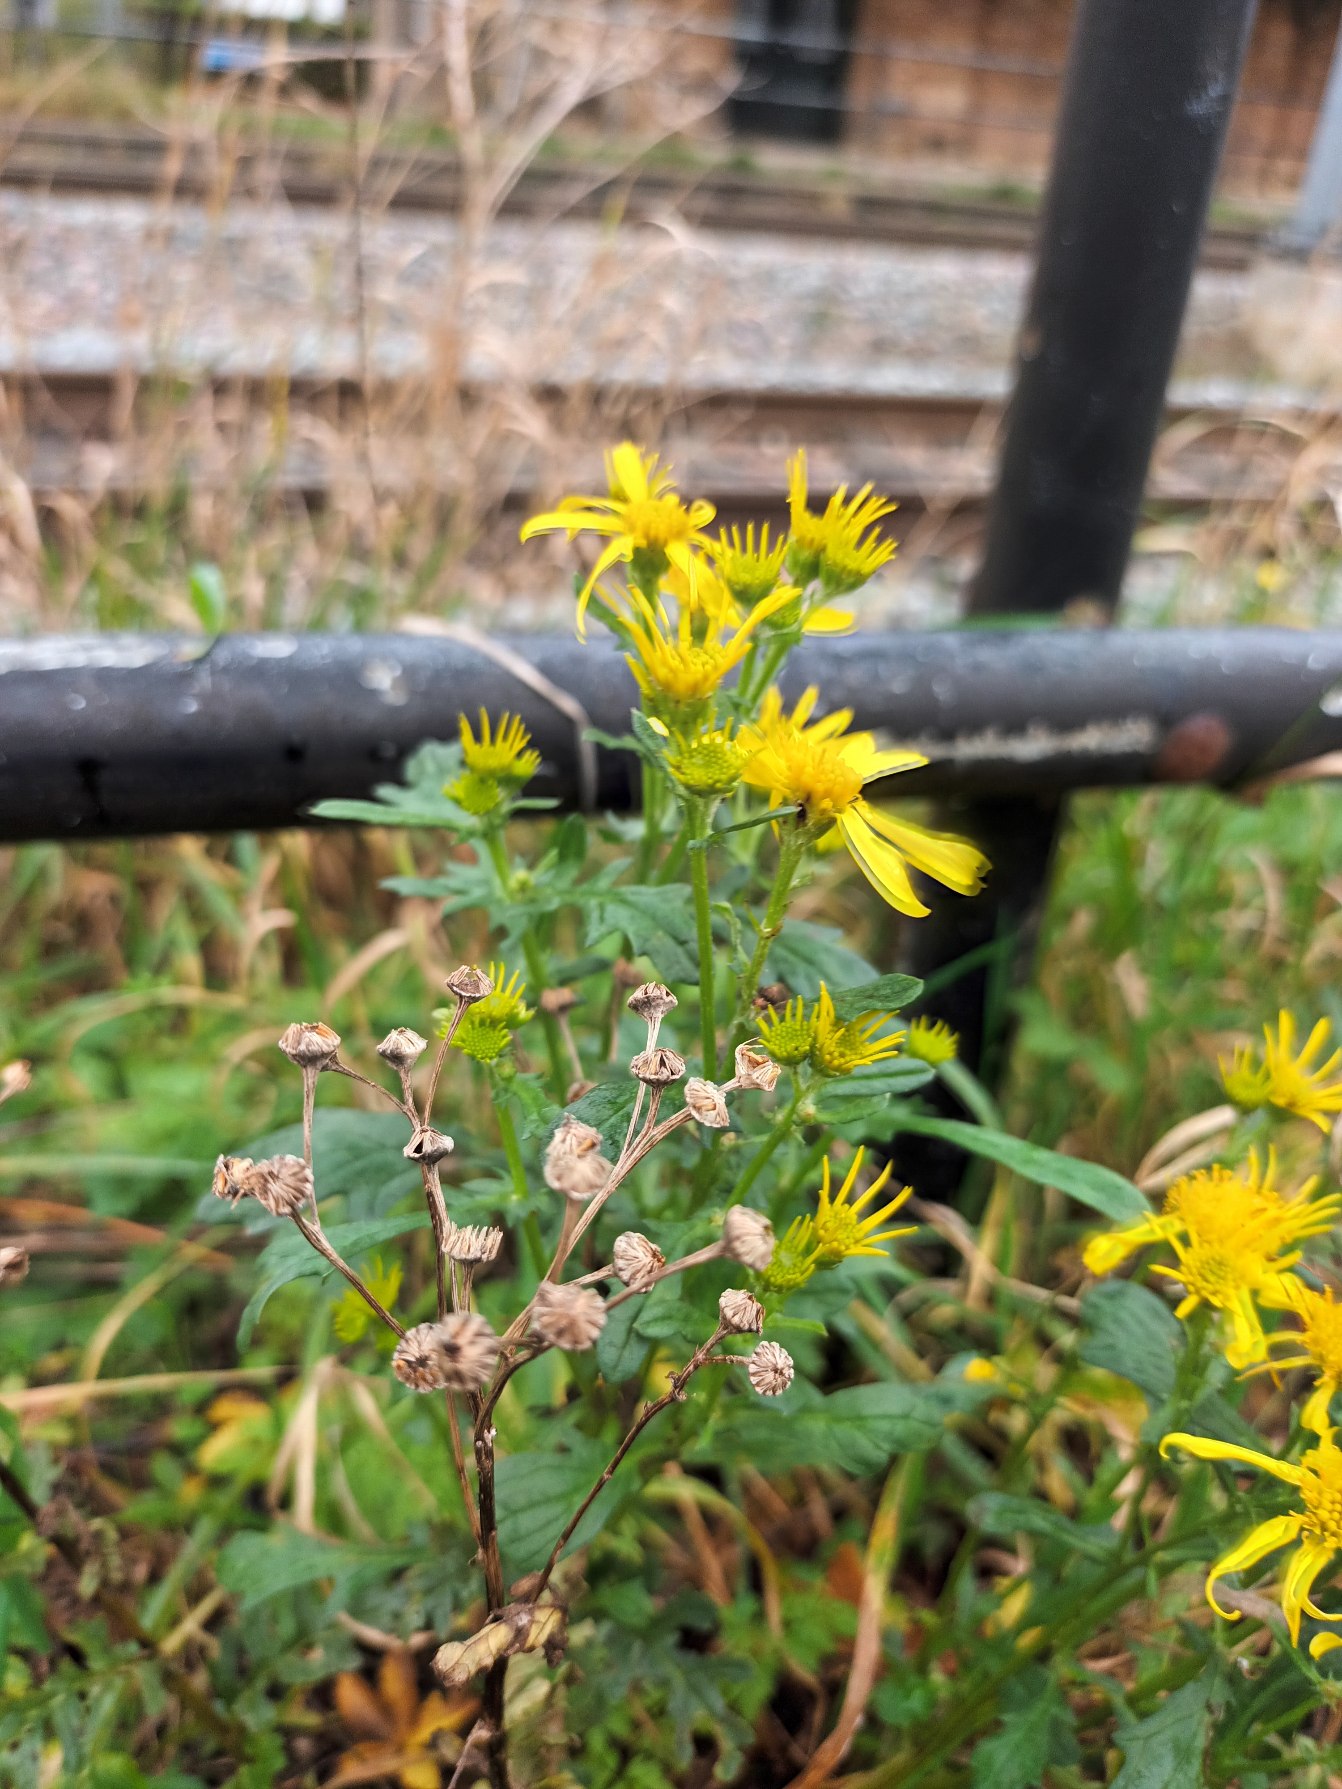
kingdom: Plantae
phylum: Tracheophyta
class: Magnoliopsida
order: Asterales
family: Asteraceae
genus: Jacobaea
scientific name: Jacobaea vulgaris
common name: Eng-brandbæger
